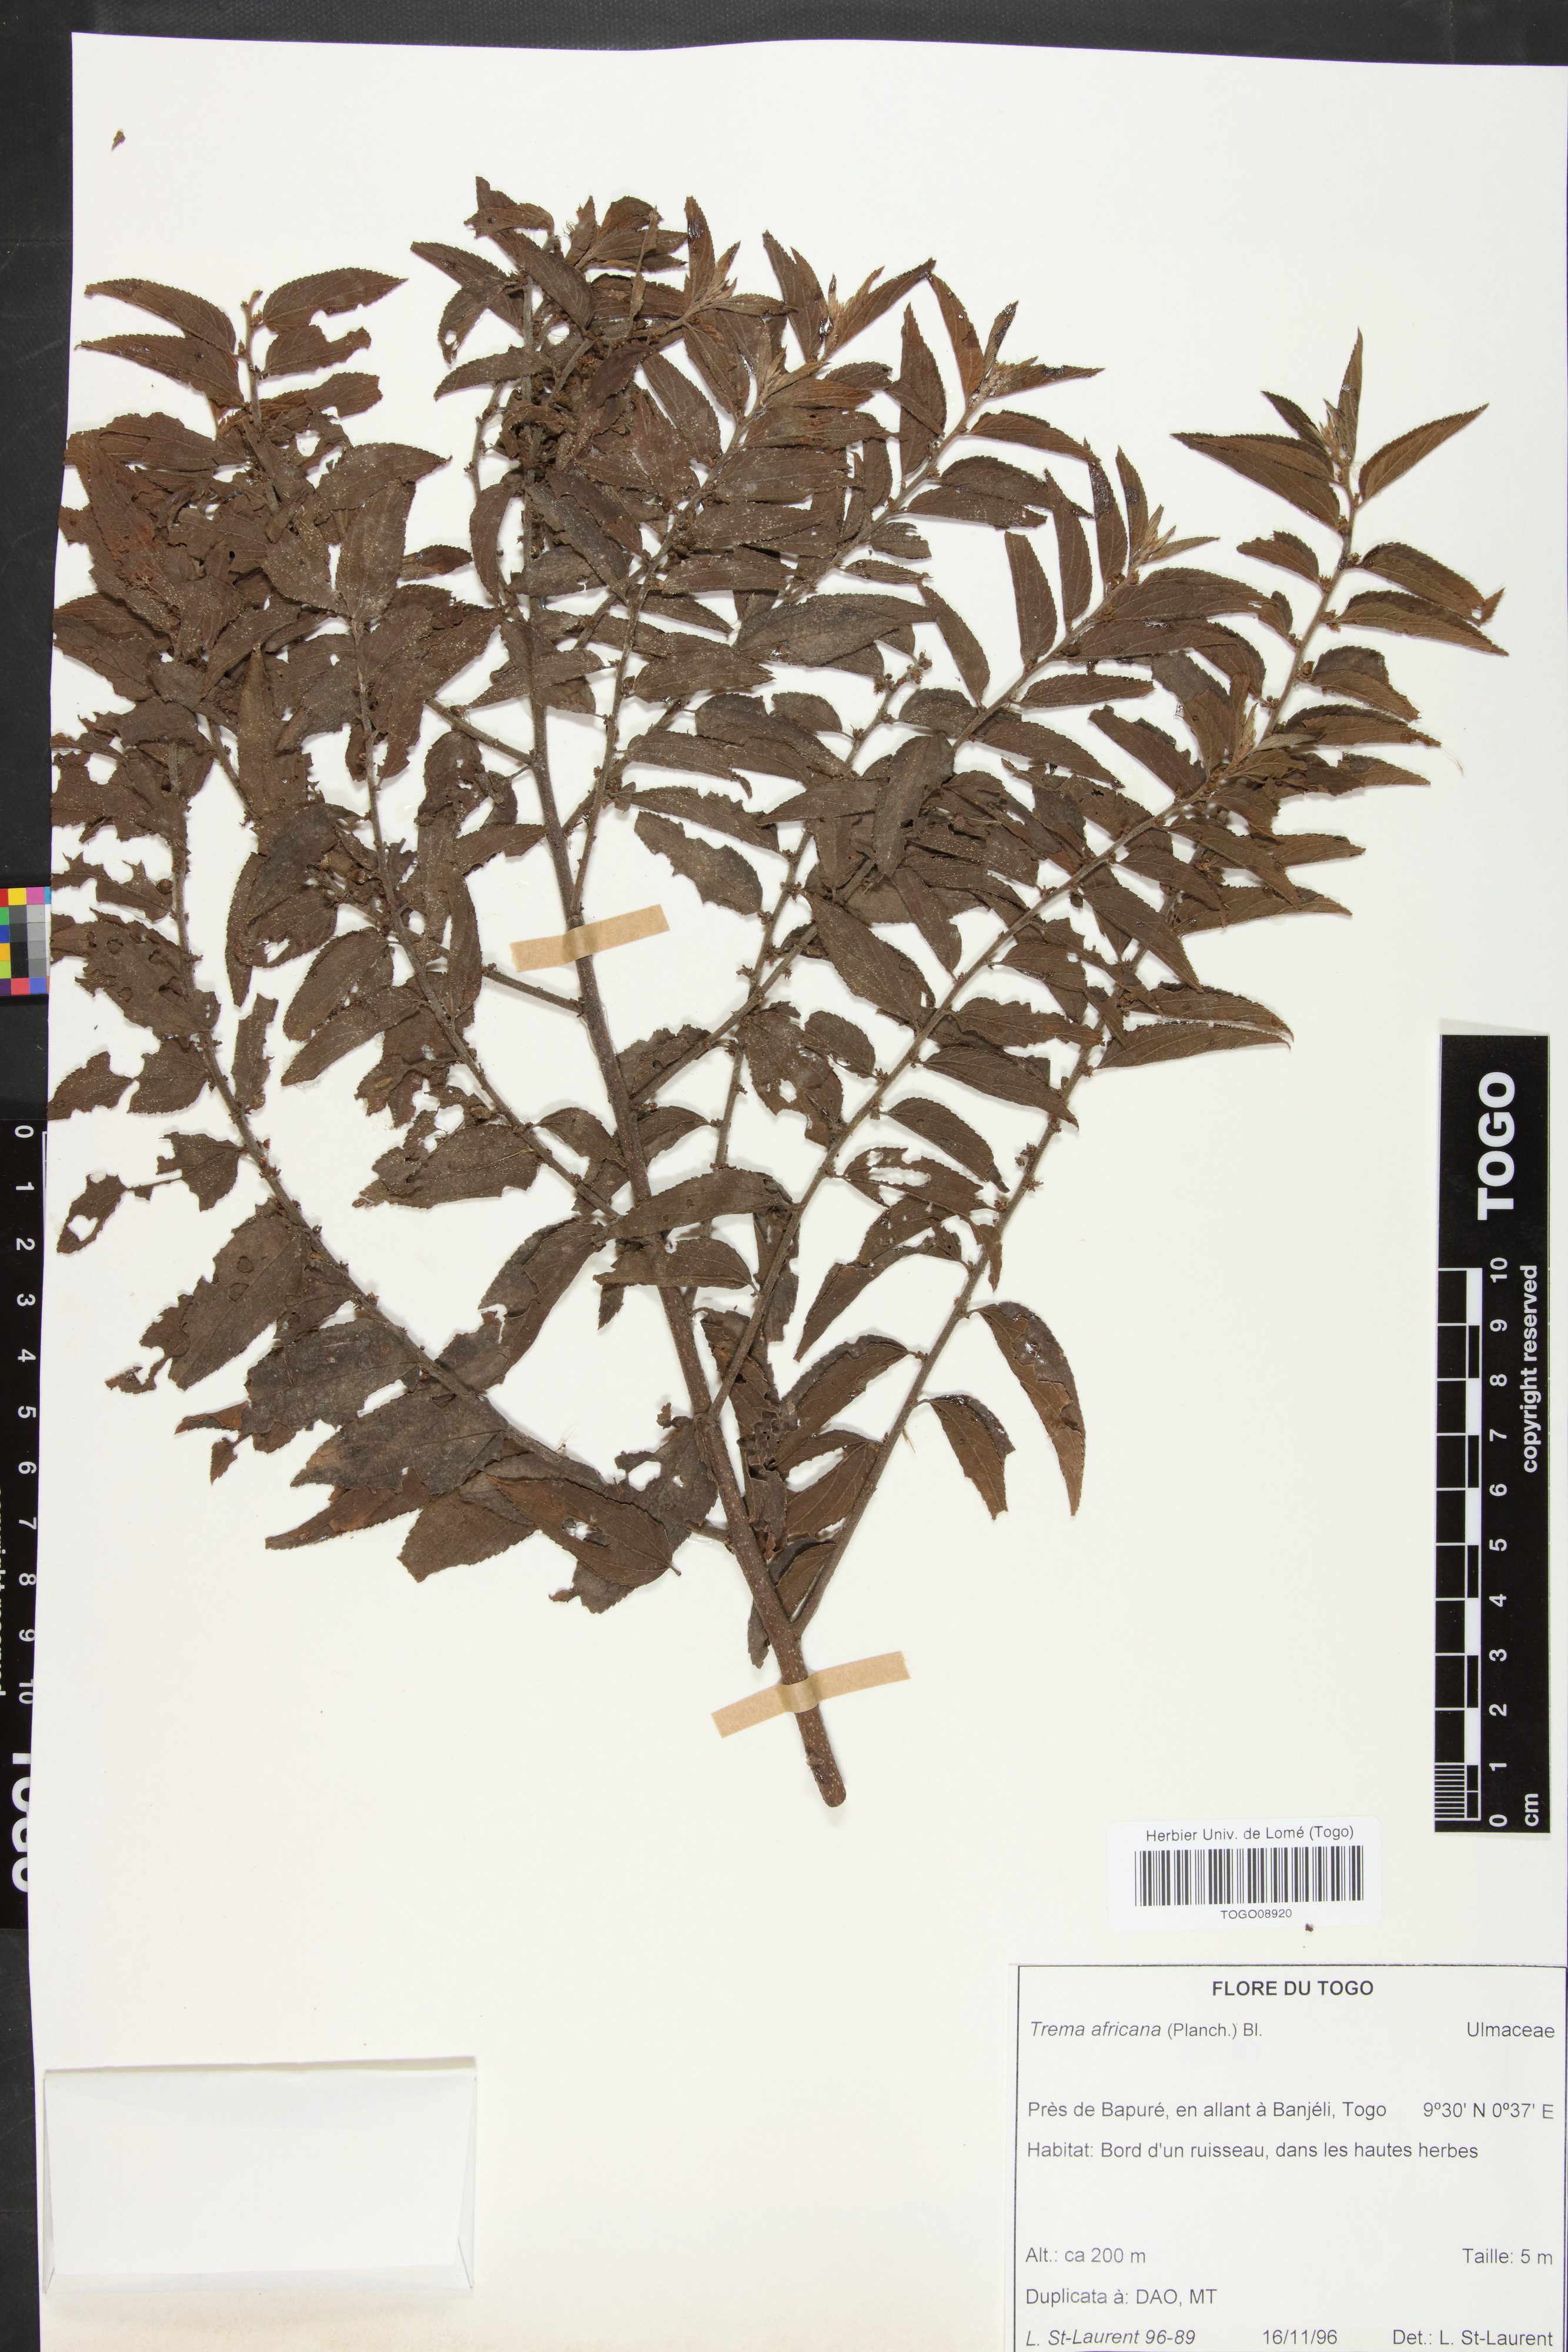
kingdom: Plantae
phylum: Tracheophyta
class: Magnoliopsida
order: Rosales
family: Cannabaceae
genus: Trema
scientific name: Trema orientale
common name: Indian charcoal tree
